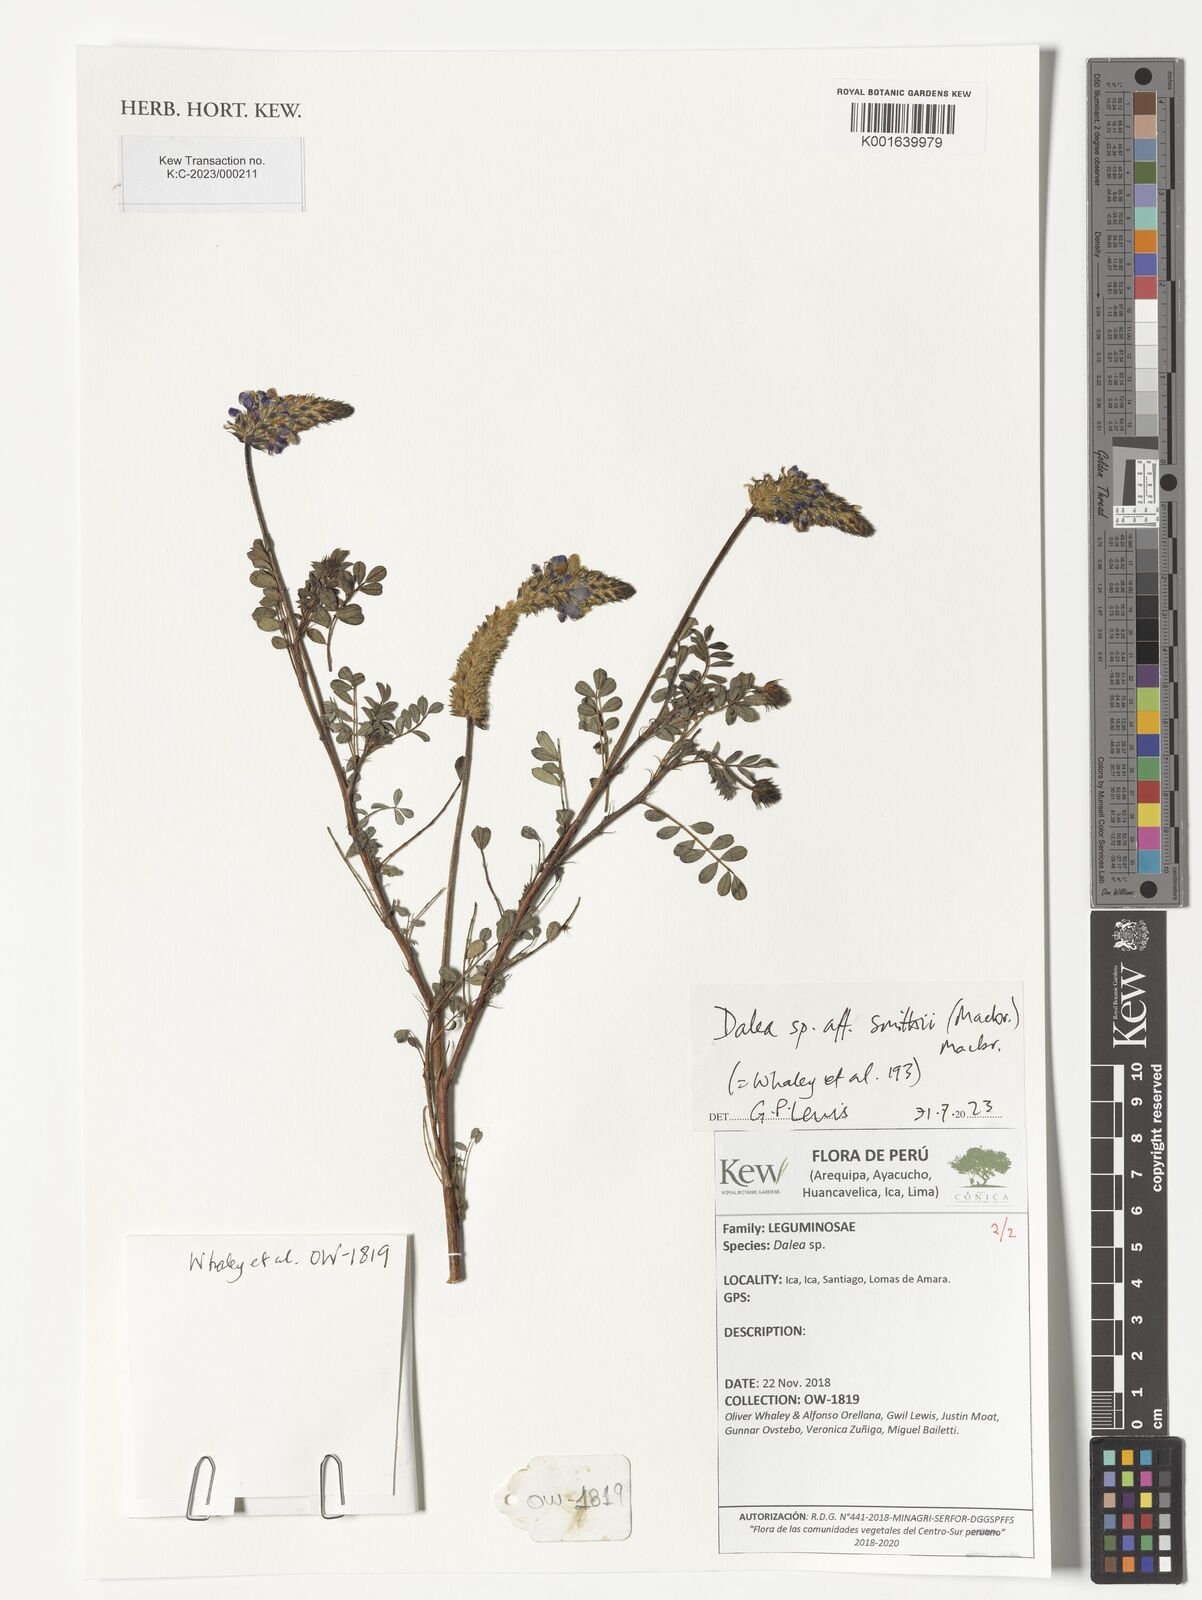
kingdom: Plantae
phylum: Tracheophyta
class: Magnoliopsida
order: Fabales
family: Fabaceae
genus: Dalea
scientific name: Dalea smithii
